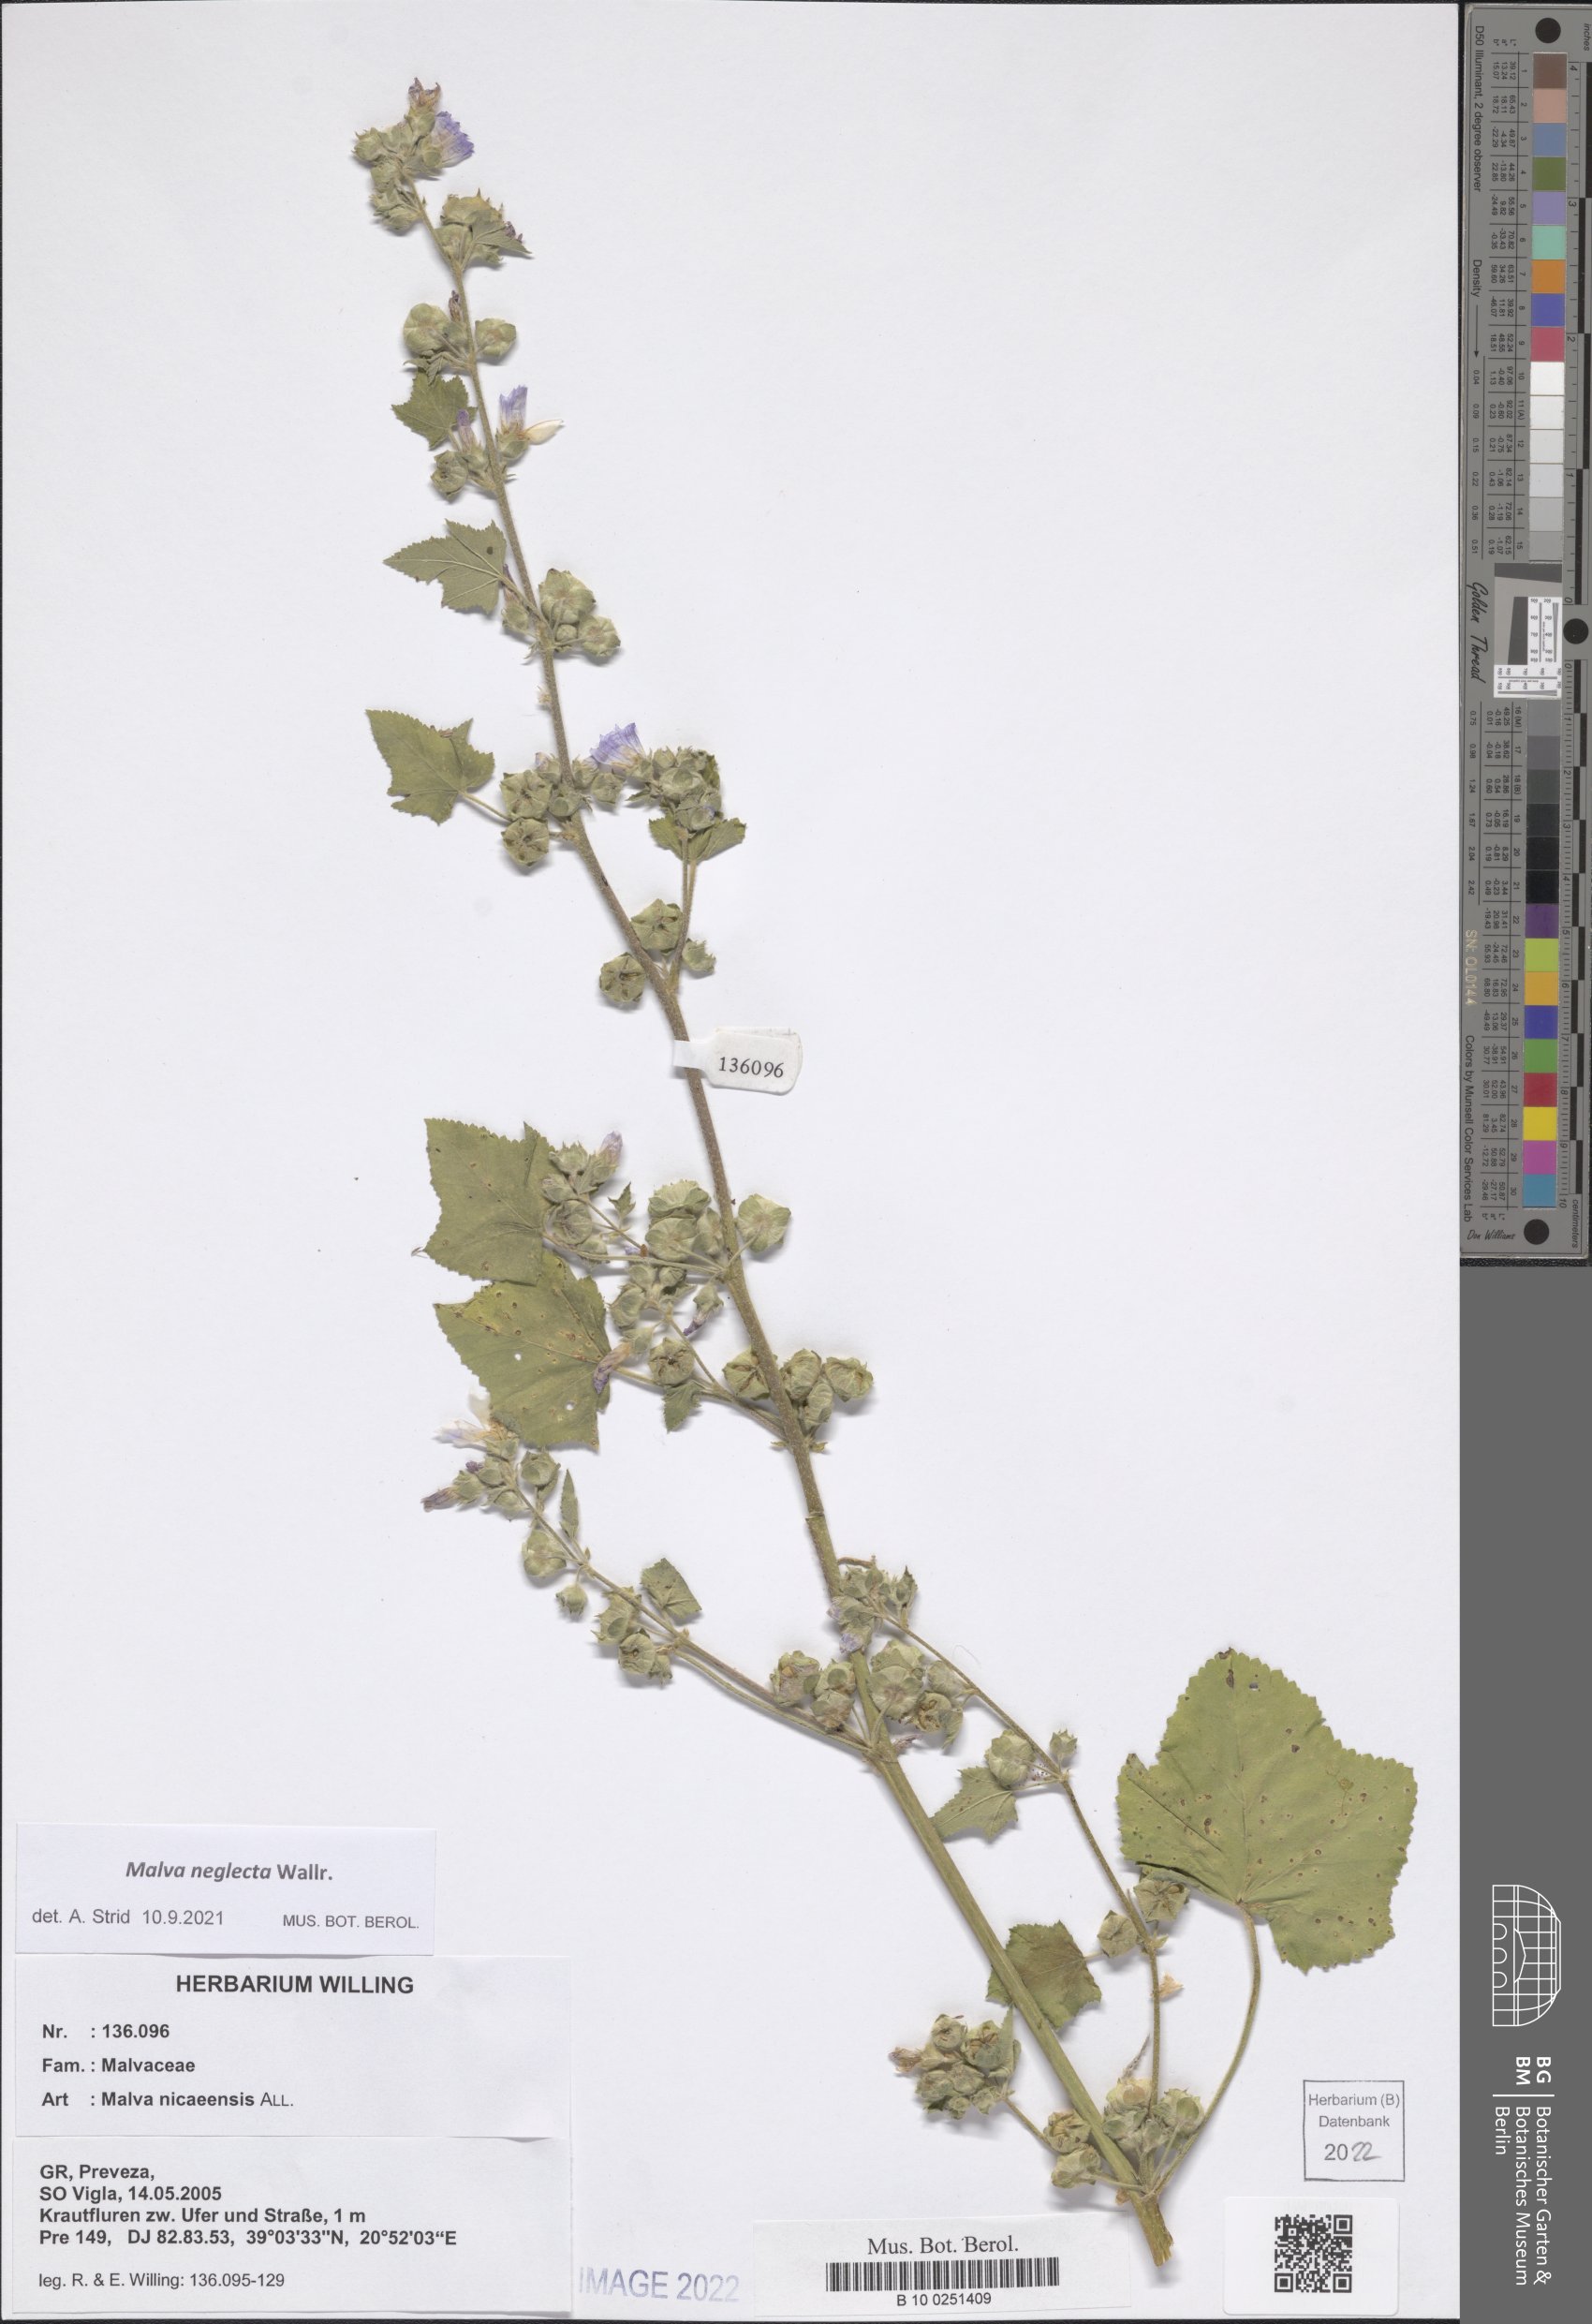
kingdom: Plantae
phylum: Tracheophyta
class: Magnoliopsida
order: Malvales
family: Malvaceae
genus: Malva
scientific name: Malva neglecta
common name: Common mallow
